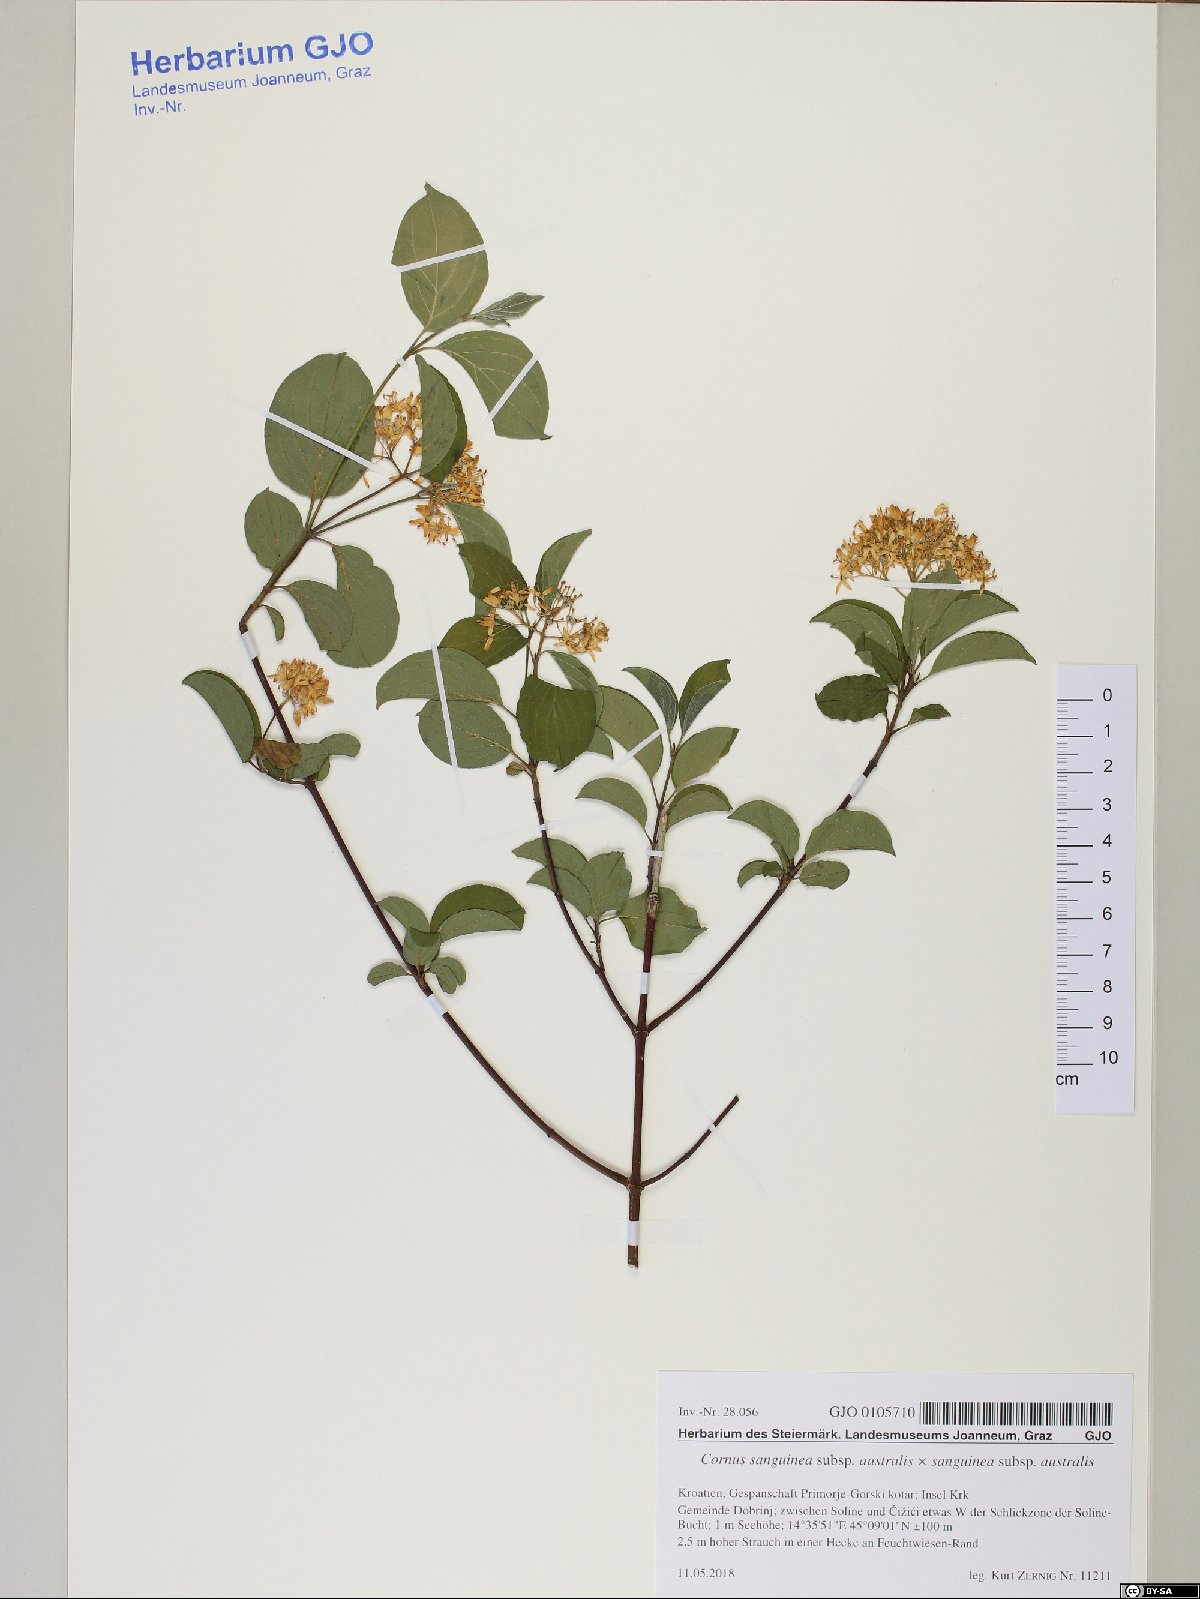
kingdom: Plantae
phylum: Tracheophyta
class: Magnoliopsida
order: Cornales
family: Cornaceae
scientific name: Cornaceae
